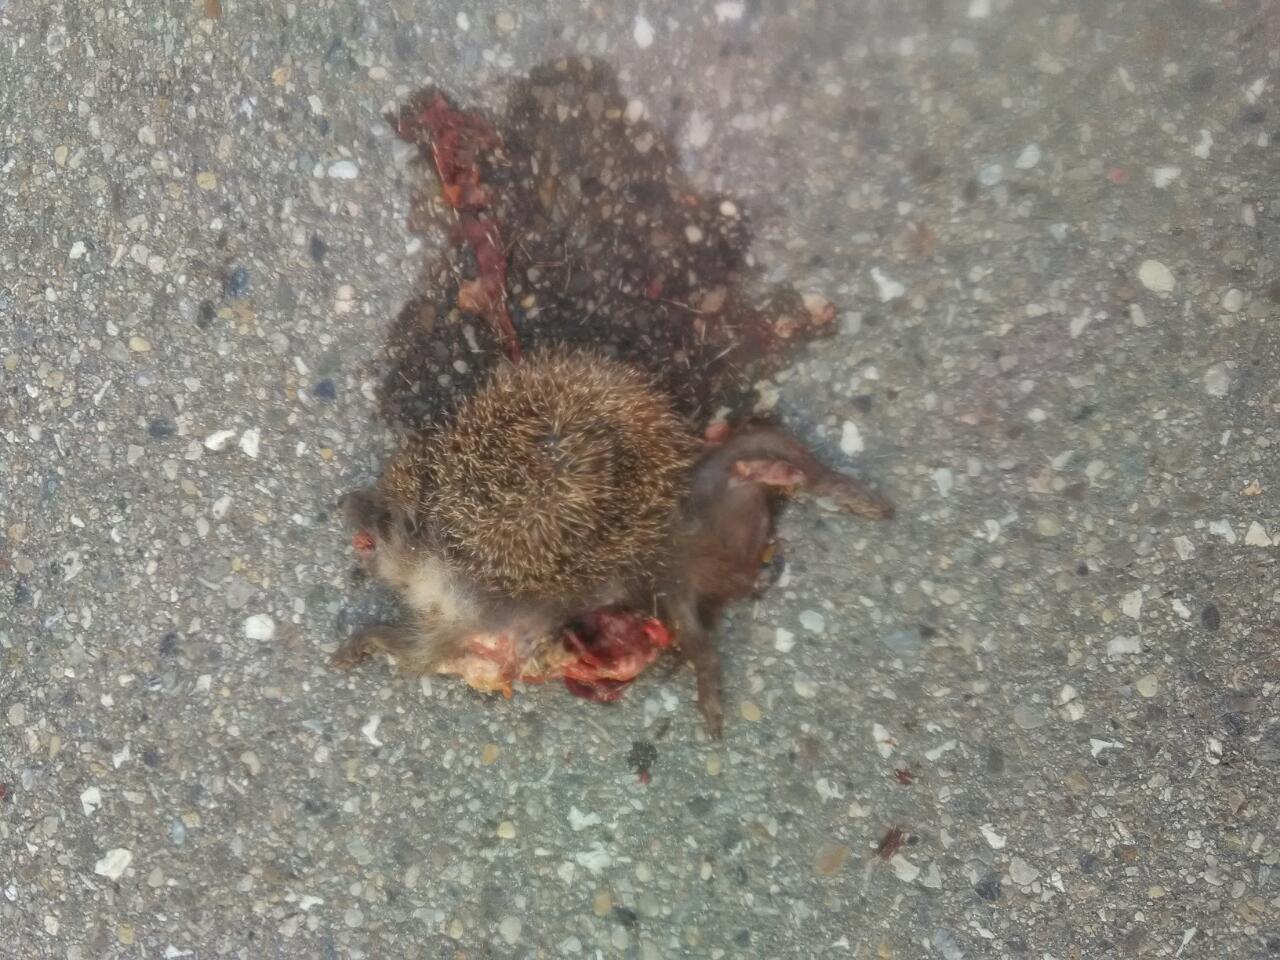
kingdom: Animalia
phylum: Chordata
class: Mammalia
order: Erinaceomorpha
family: Erinaceidae
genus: Erinaceus
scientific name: Erinaceus
